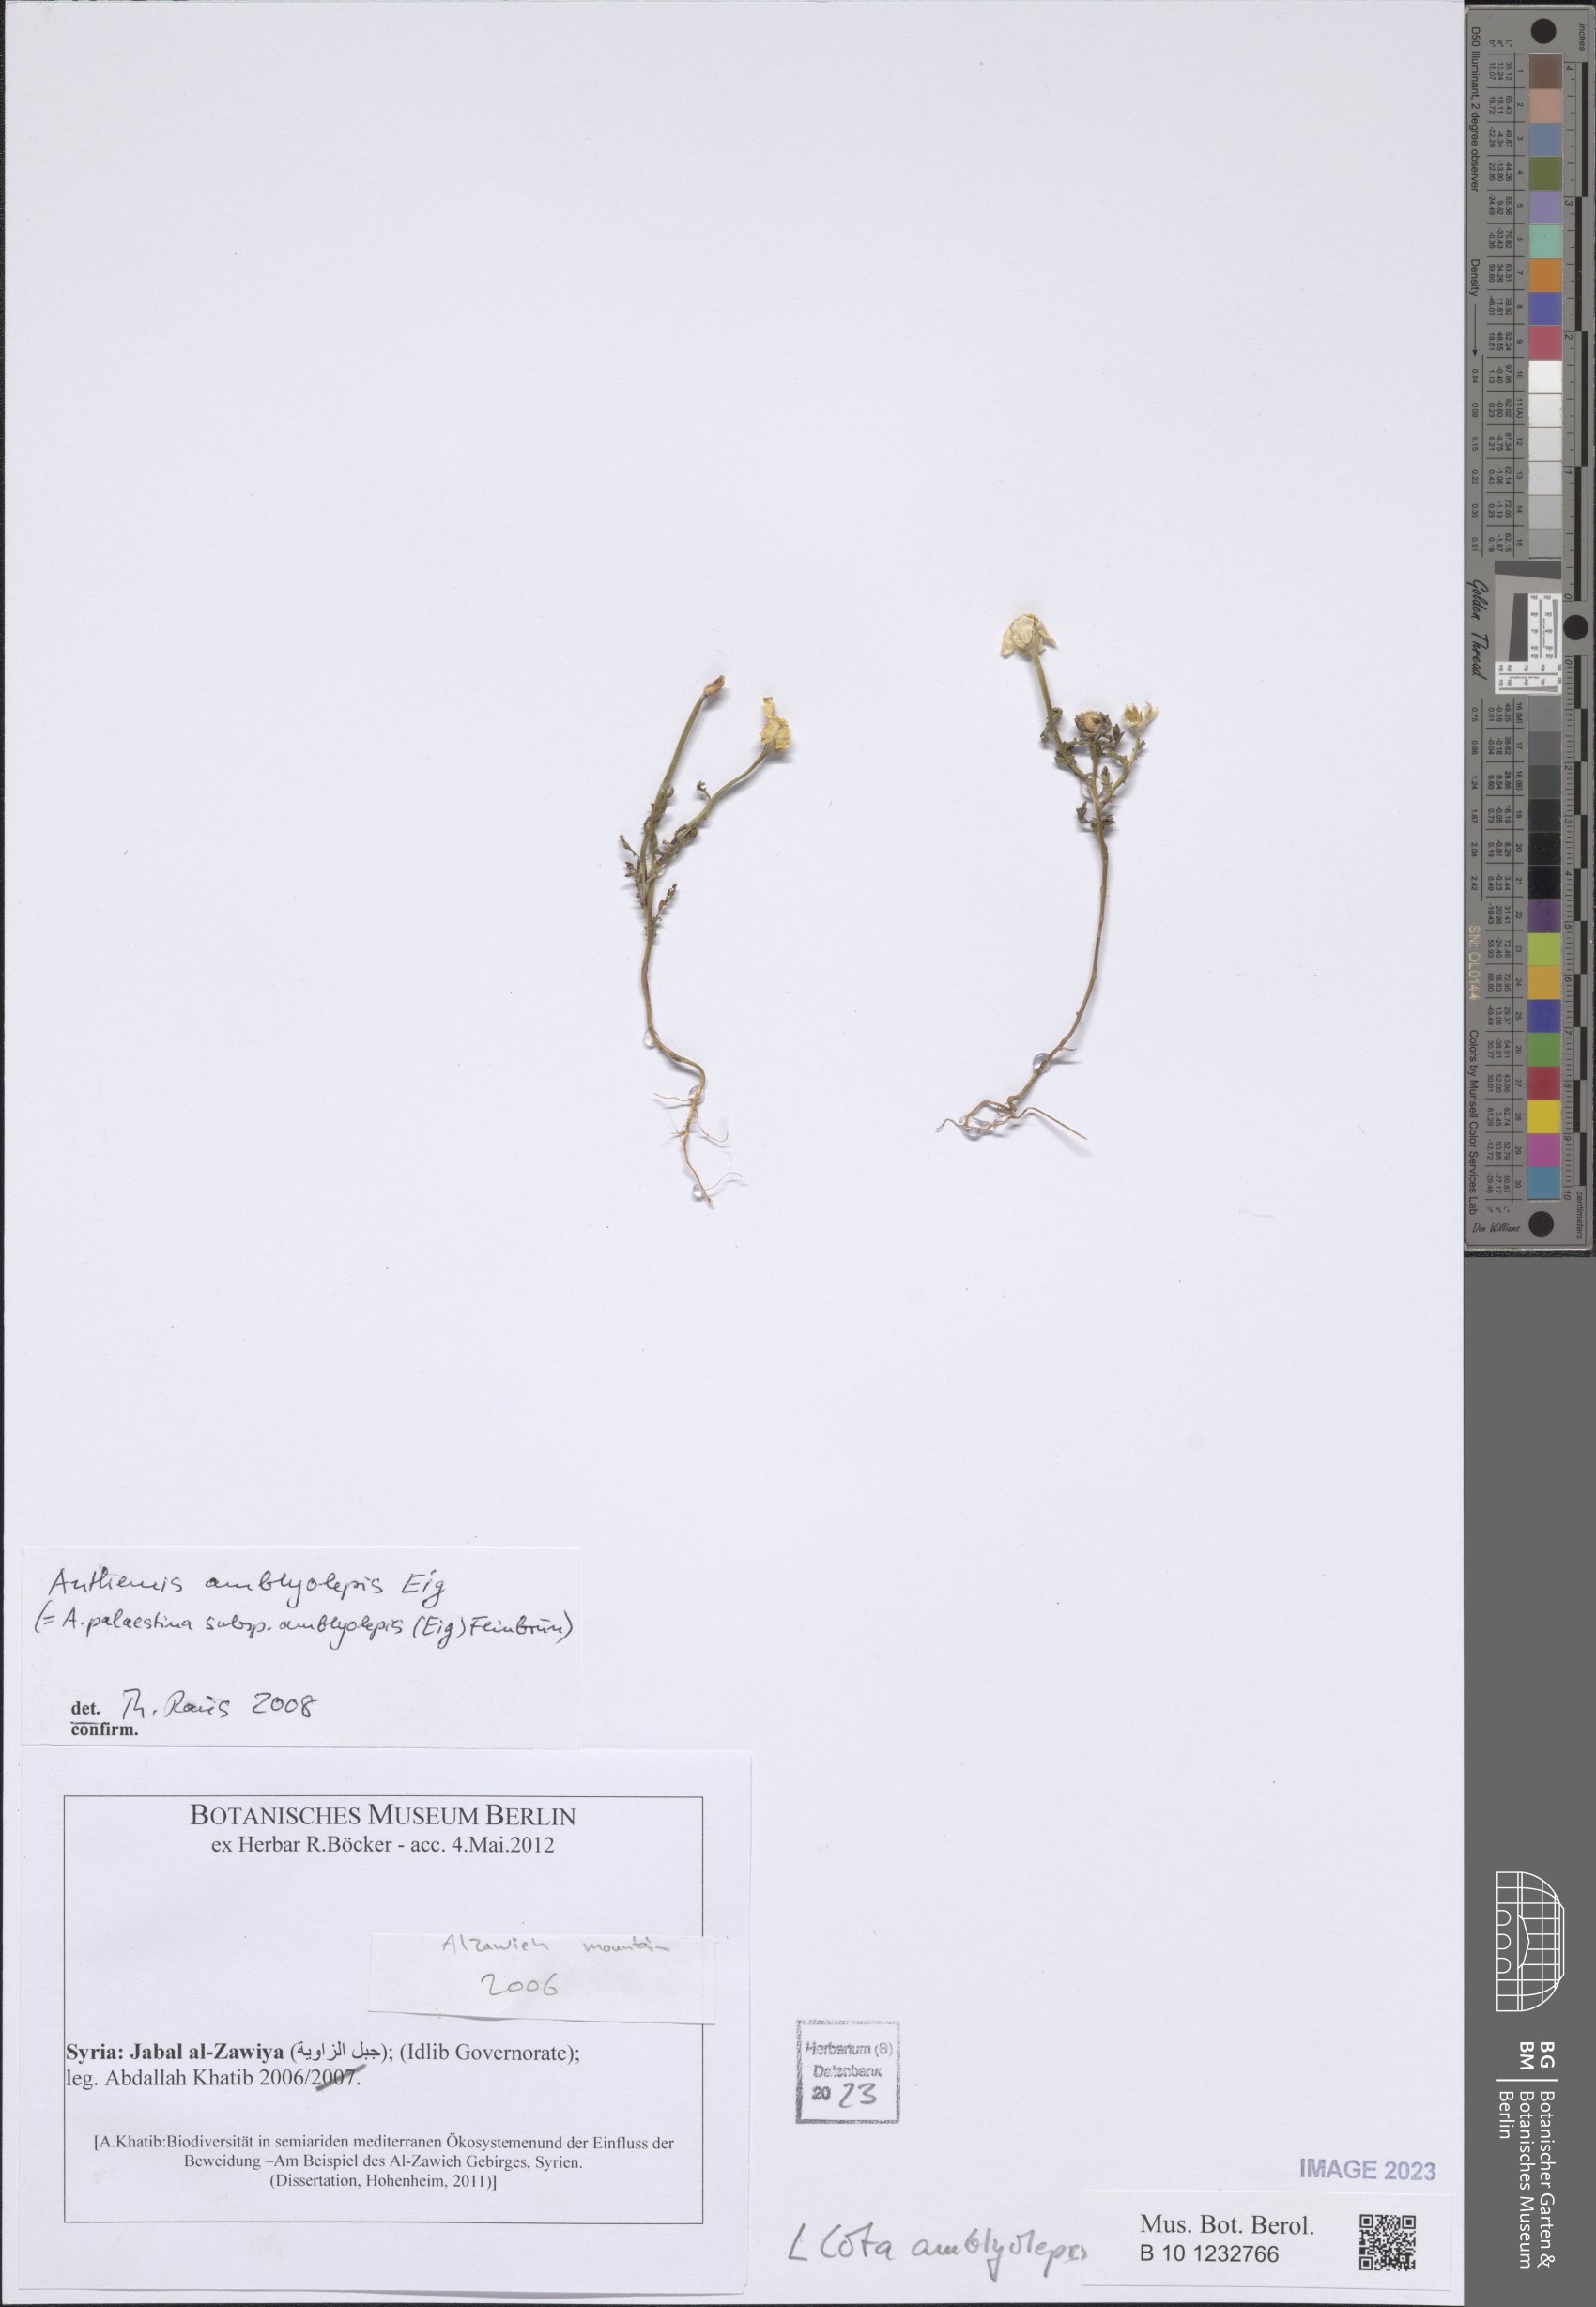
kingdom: Plantae
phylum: Tracheophyta
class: Magnoliopsida
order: Asterales
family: Asteraceae
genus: Cota
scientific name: Cota amblyolepis
